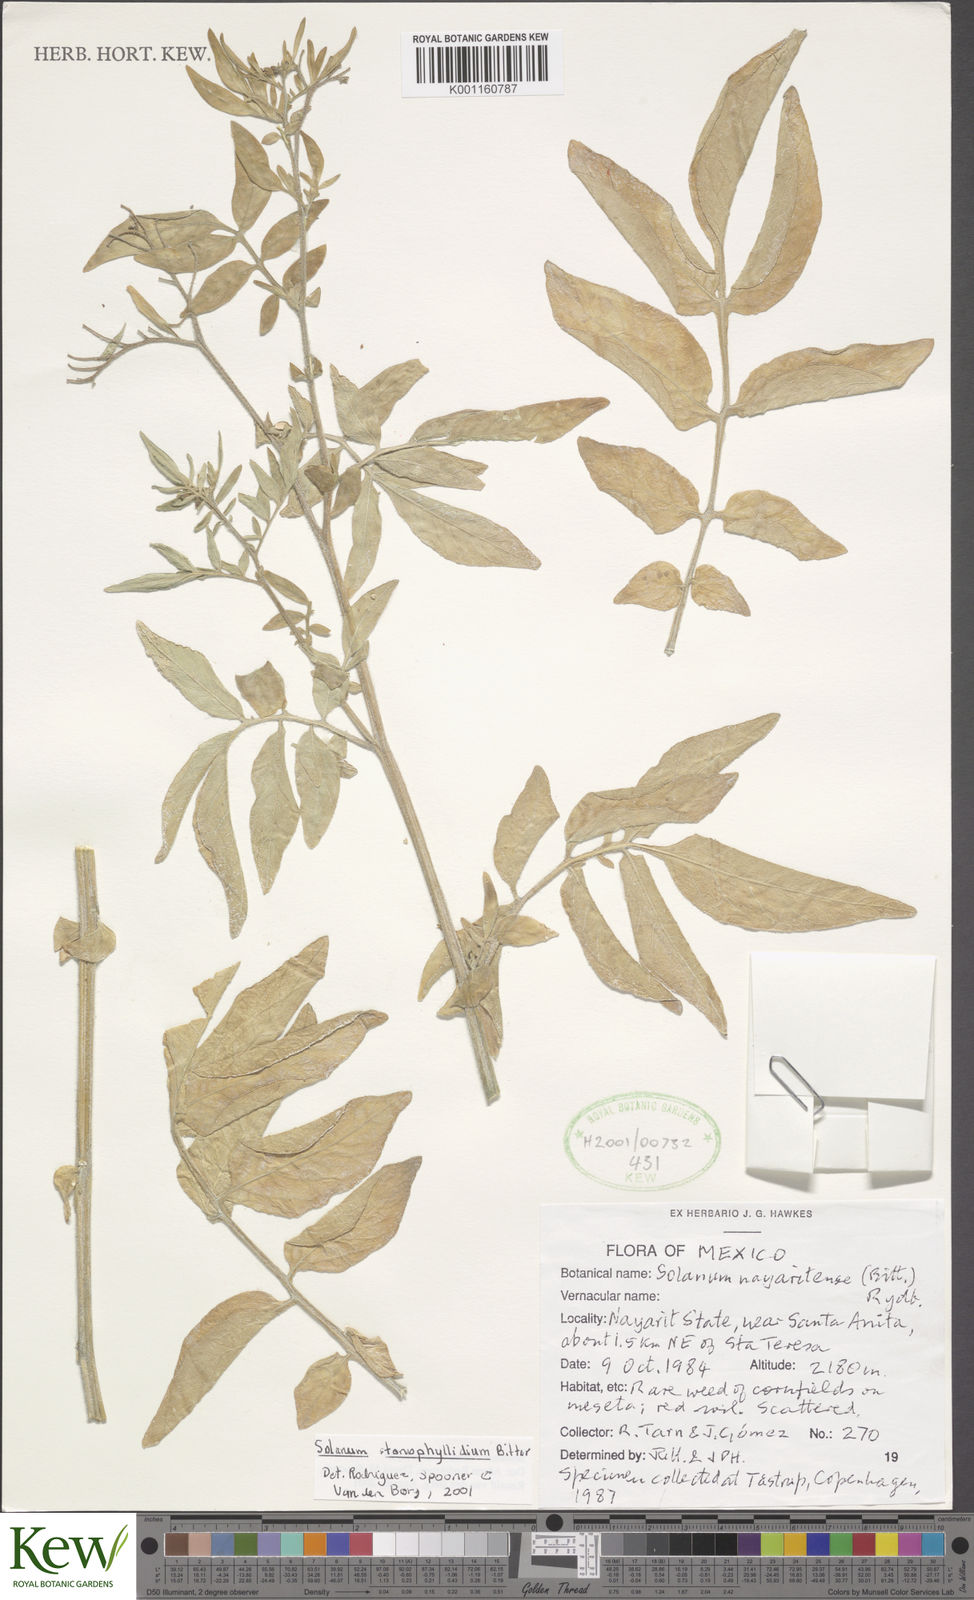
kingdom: Plantae
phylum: Tracheophyta
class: Magnoliopsida
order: Solanales
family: Solanaceae
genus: Solanum
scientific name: Solanum stenophyllidium
